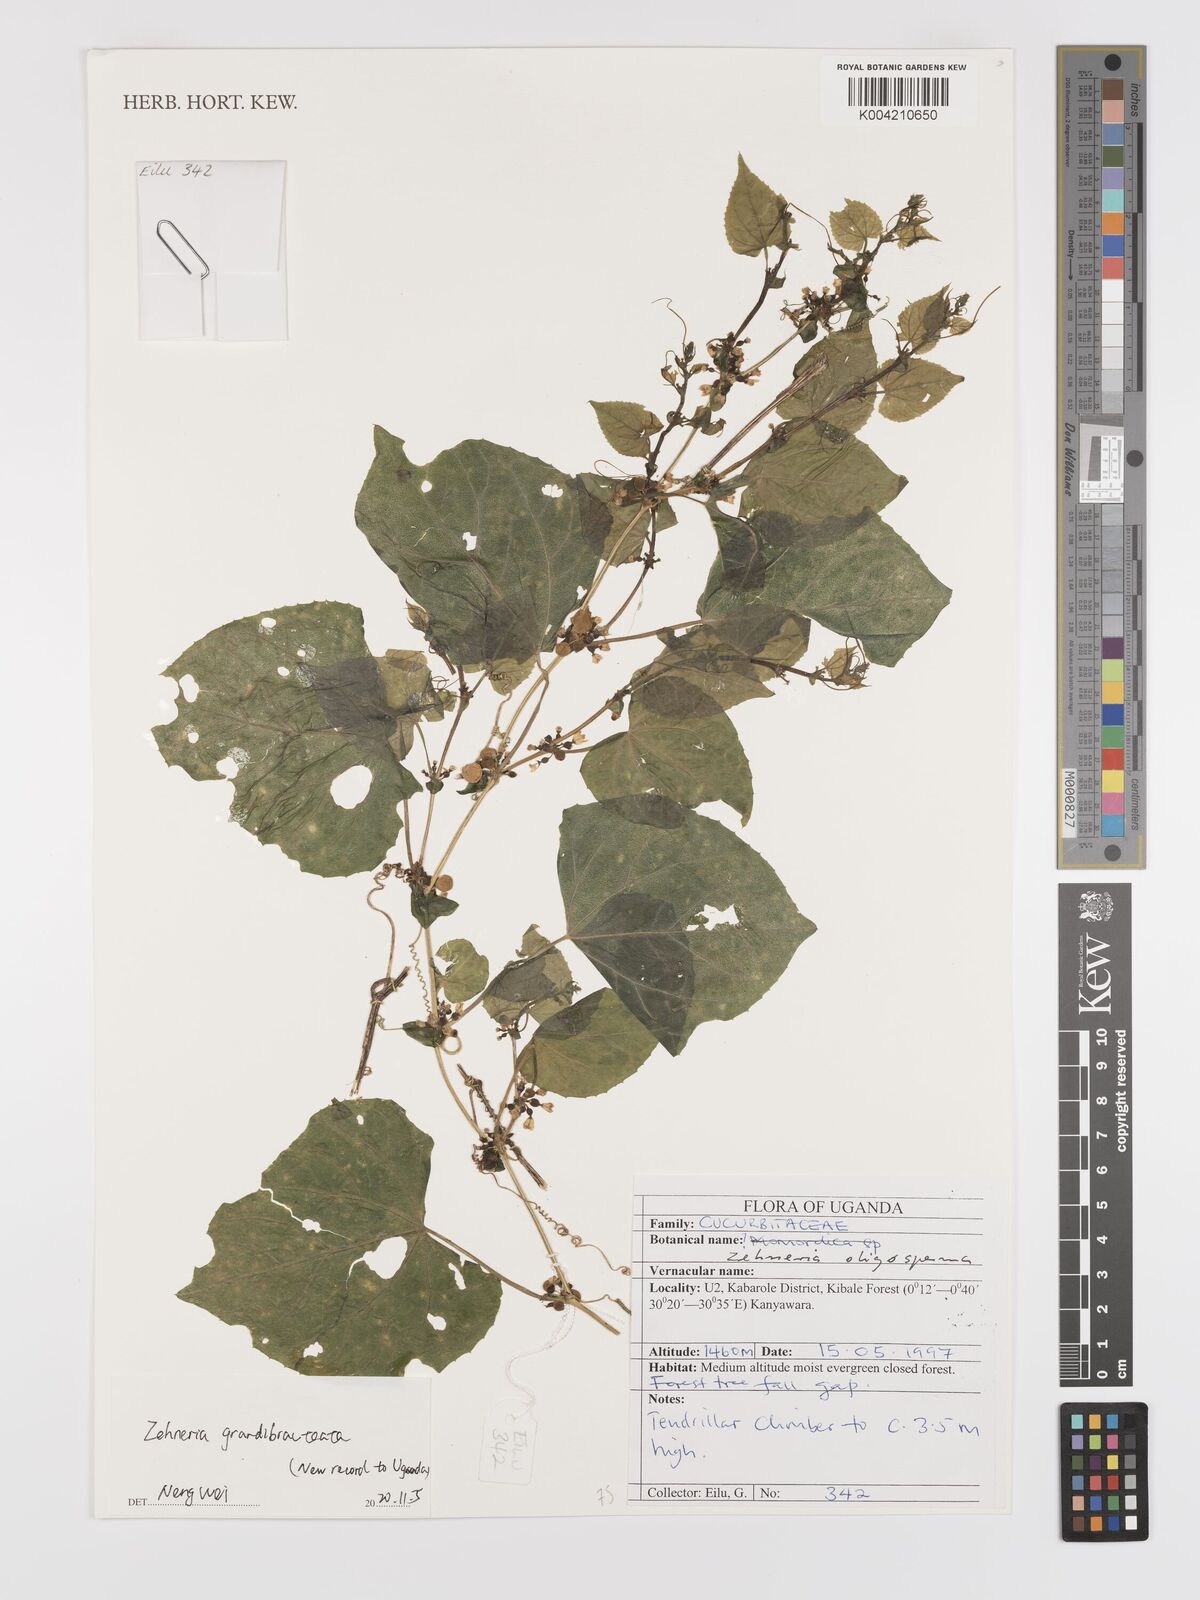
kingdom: Plantae
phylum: Tracheophyta
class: Magnoliopsida
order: Cucurbitales
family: Cucurbitaceae
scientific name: Cucurbitaceae
